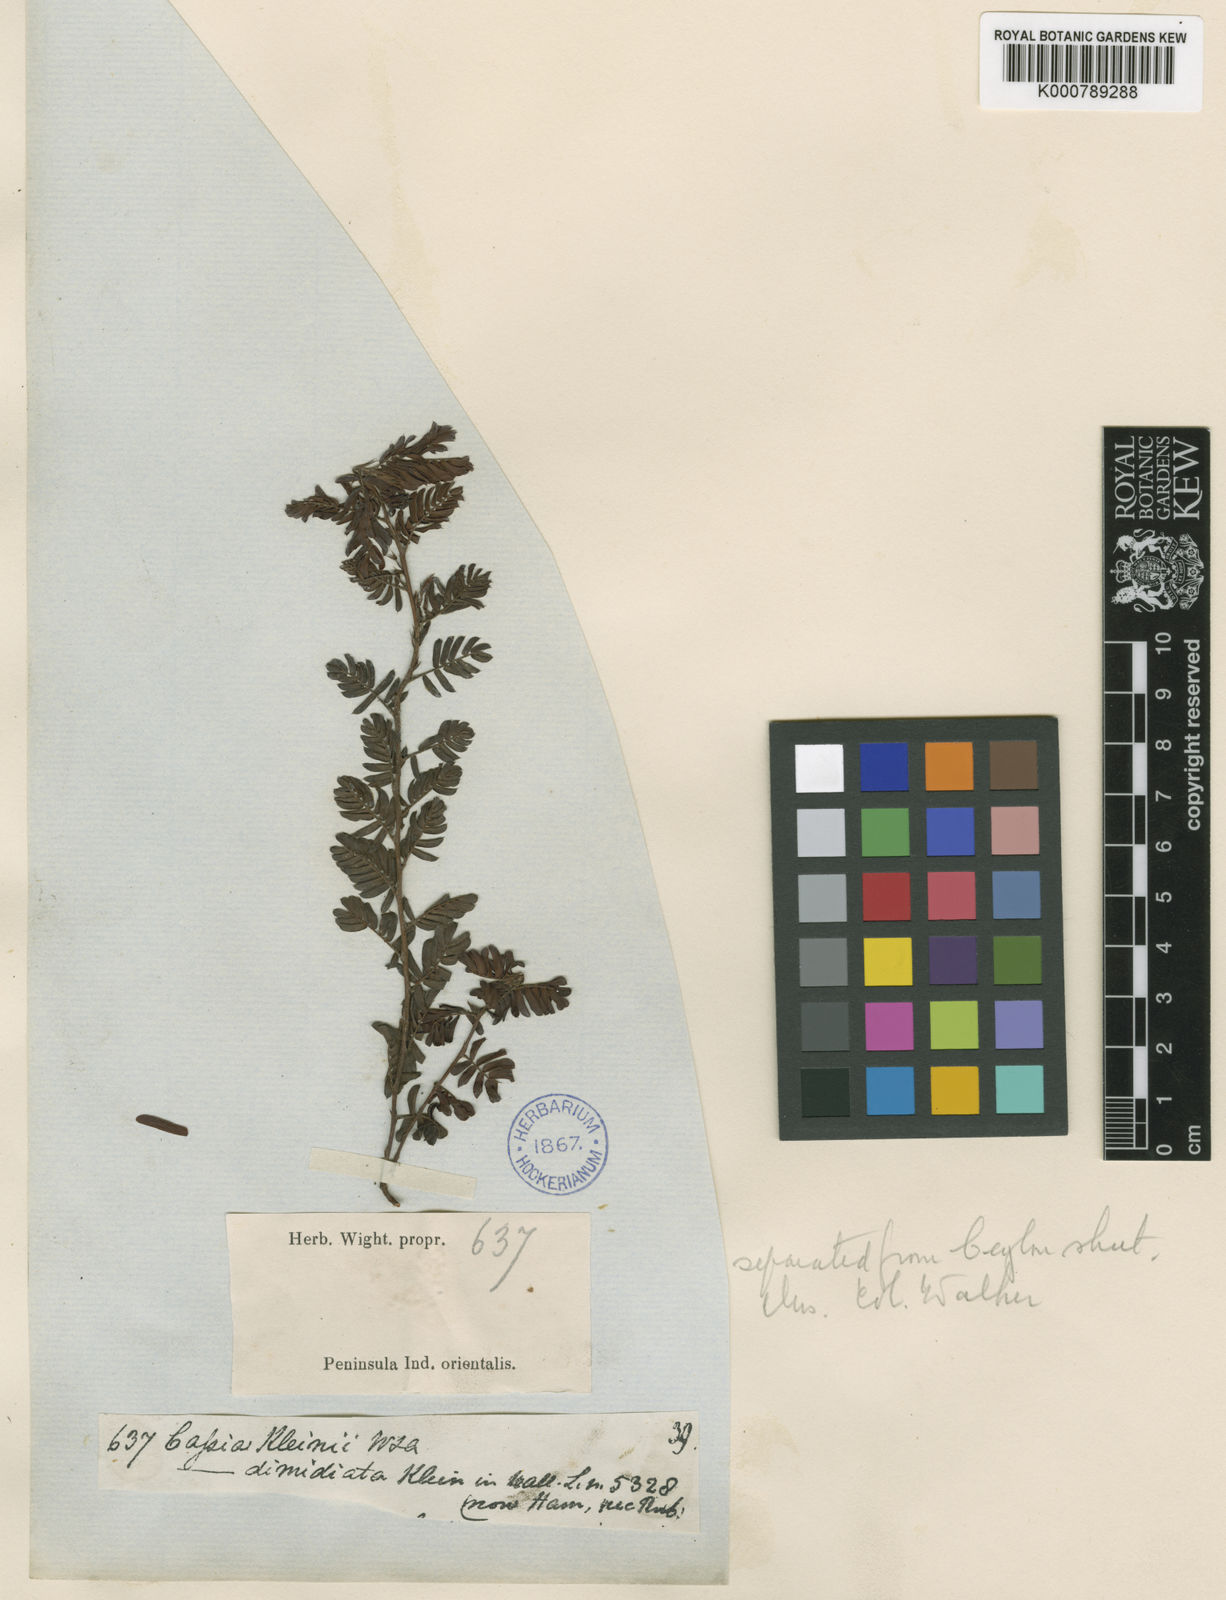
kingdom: Plantae
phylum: Tracheophyta
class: Magnoliopsida
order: Fabales
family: Fabaceae
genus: Chamaecrista
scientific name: Chamaecrista kleinii
